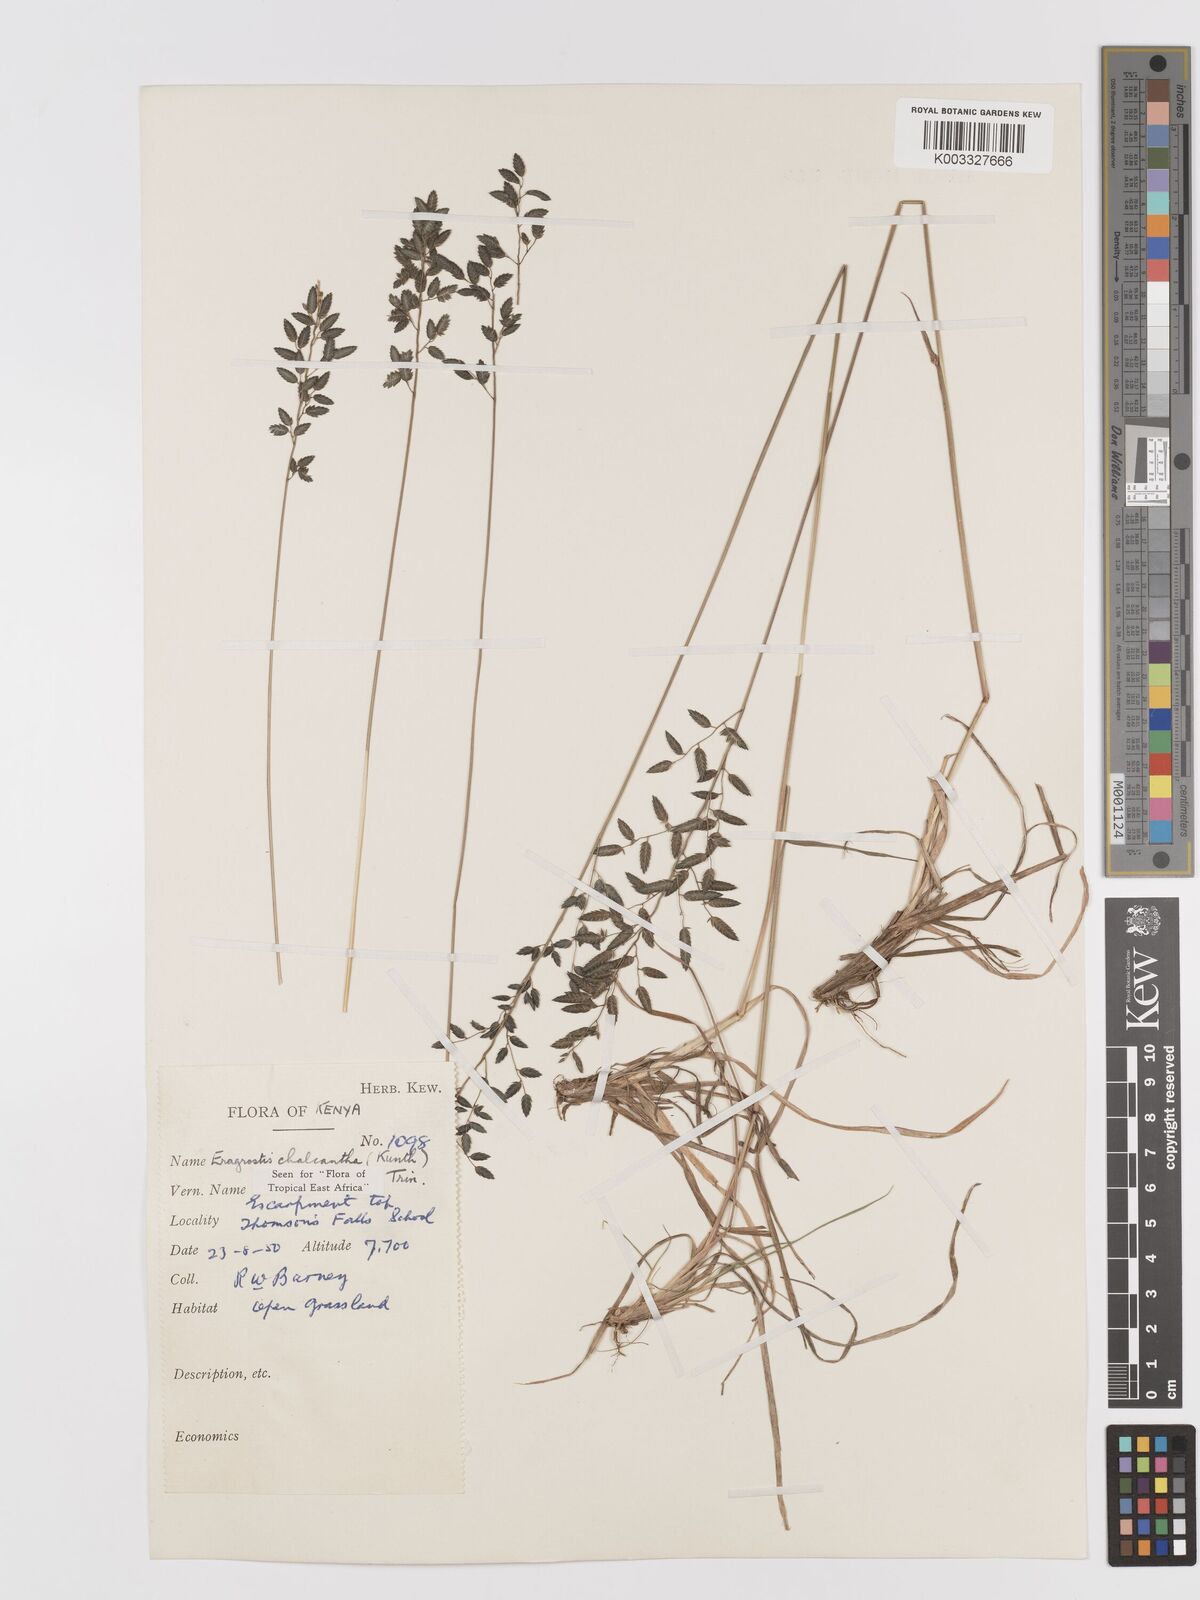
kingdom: Plantae
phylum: Tracheophyta
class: Liliopsida
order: Poales
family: Poaceae
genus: Eragrostis
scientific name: Eragrostis racemosa
